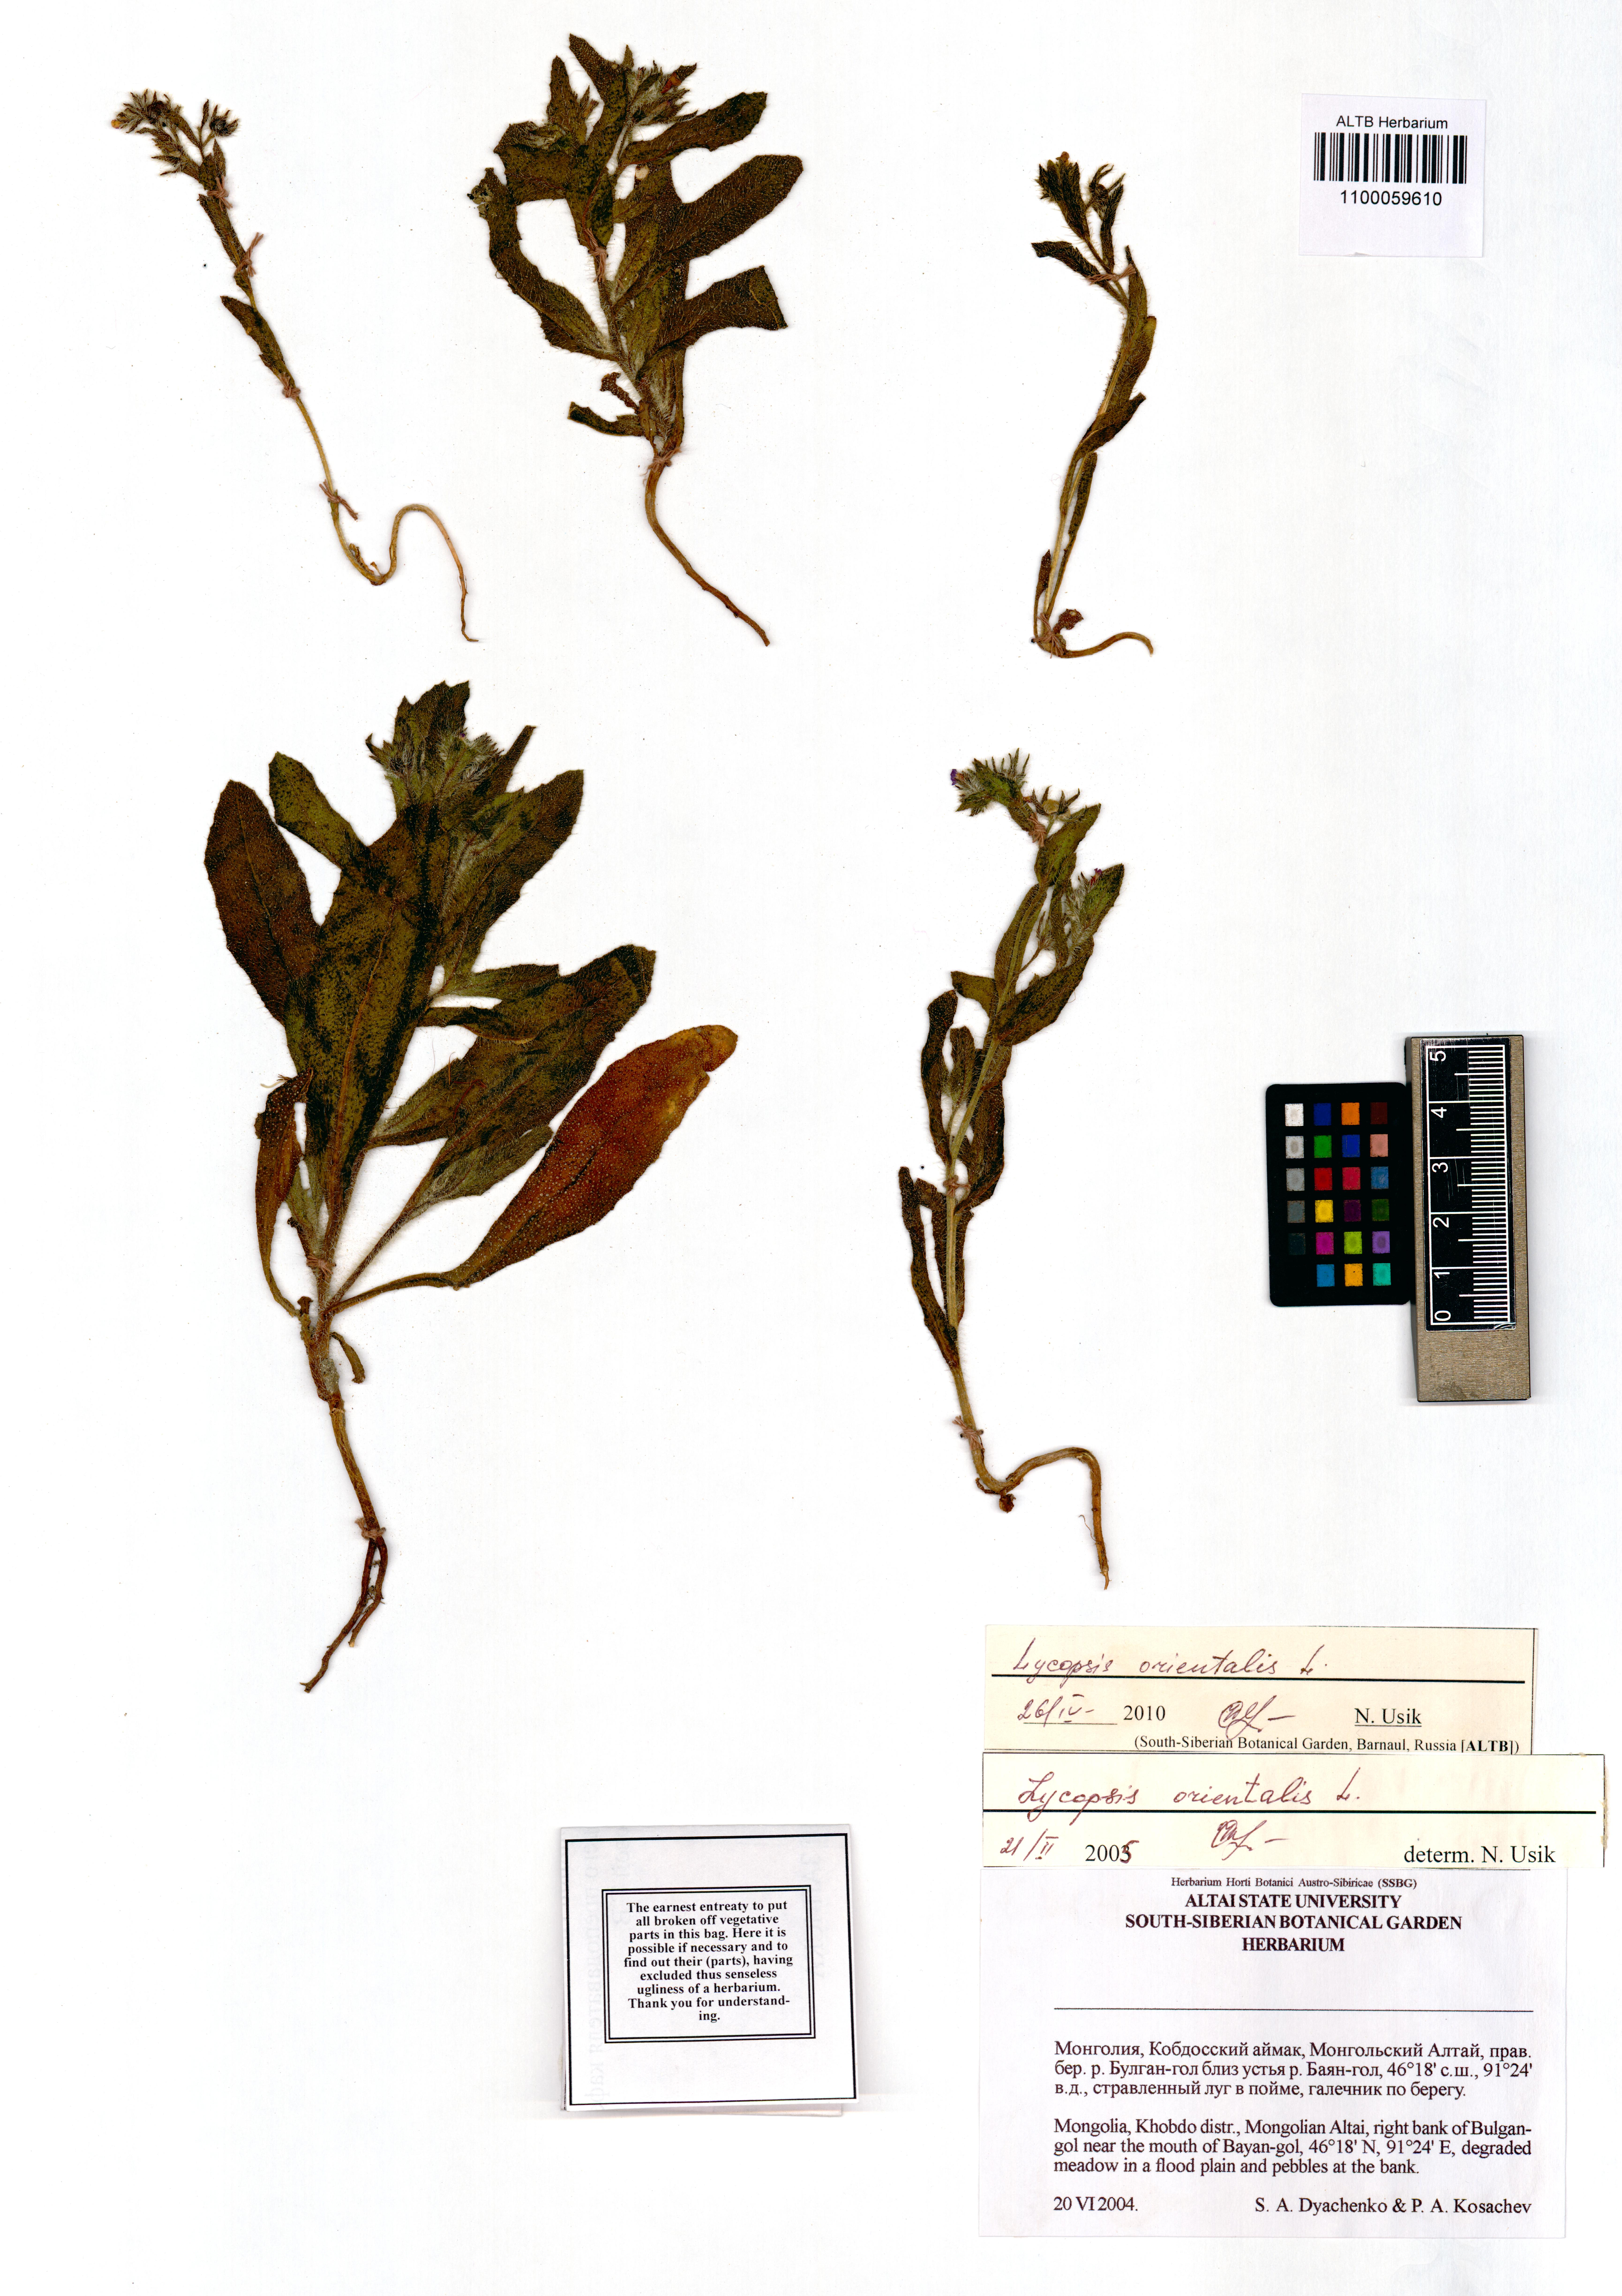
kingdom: Plantae
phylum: Tracheophyta
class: Magnoliopsida
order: Boraginales
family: Boraginaceae
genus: Lycopsis
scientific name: Lycopsis arvensis
